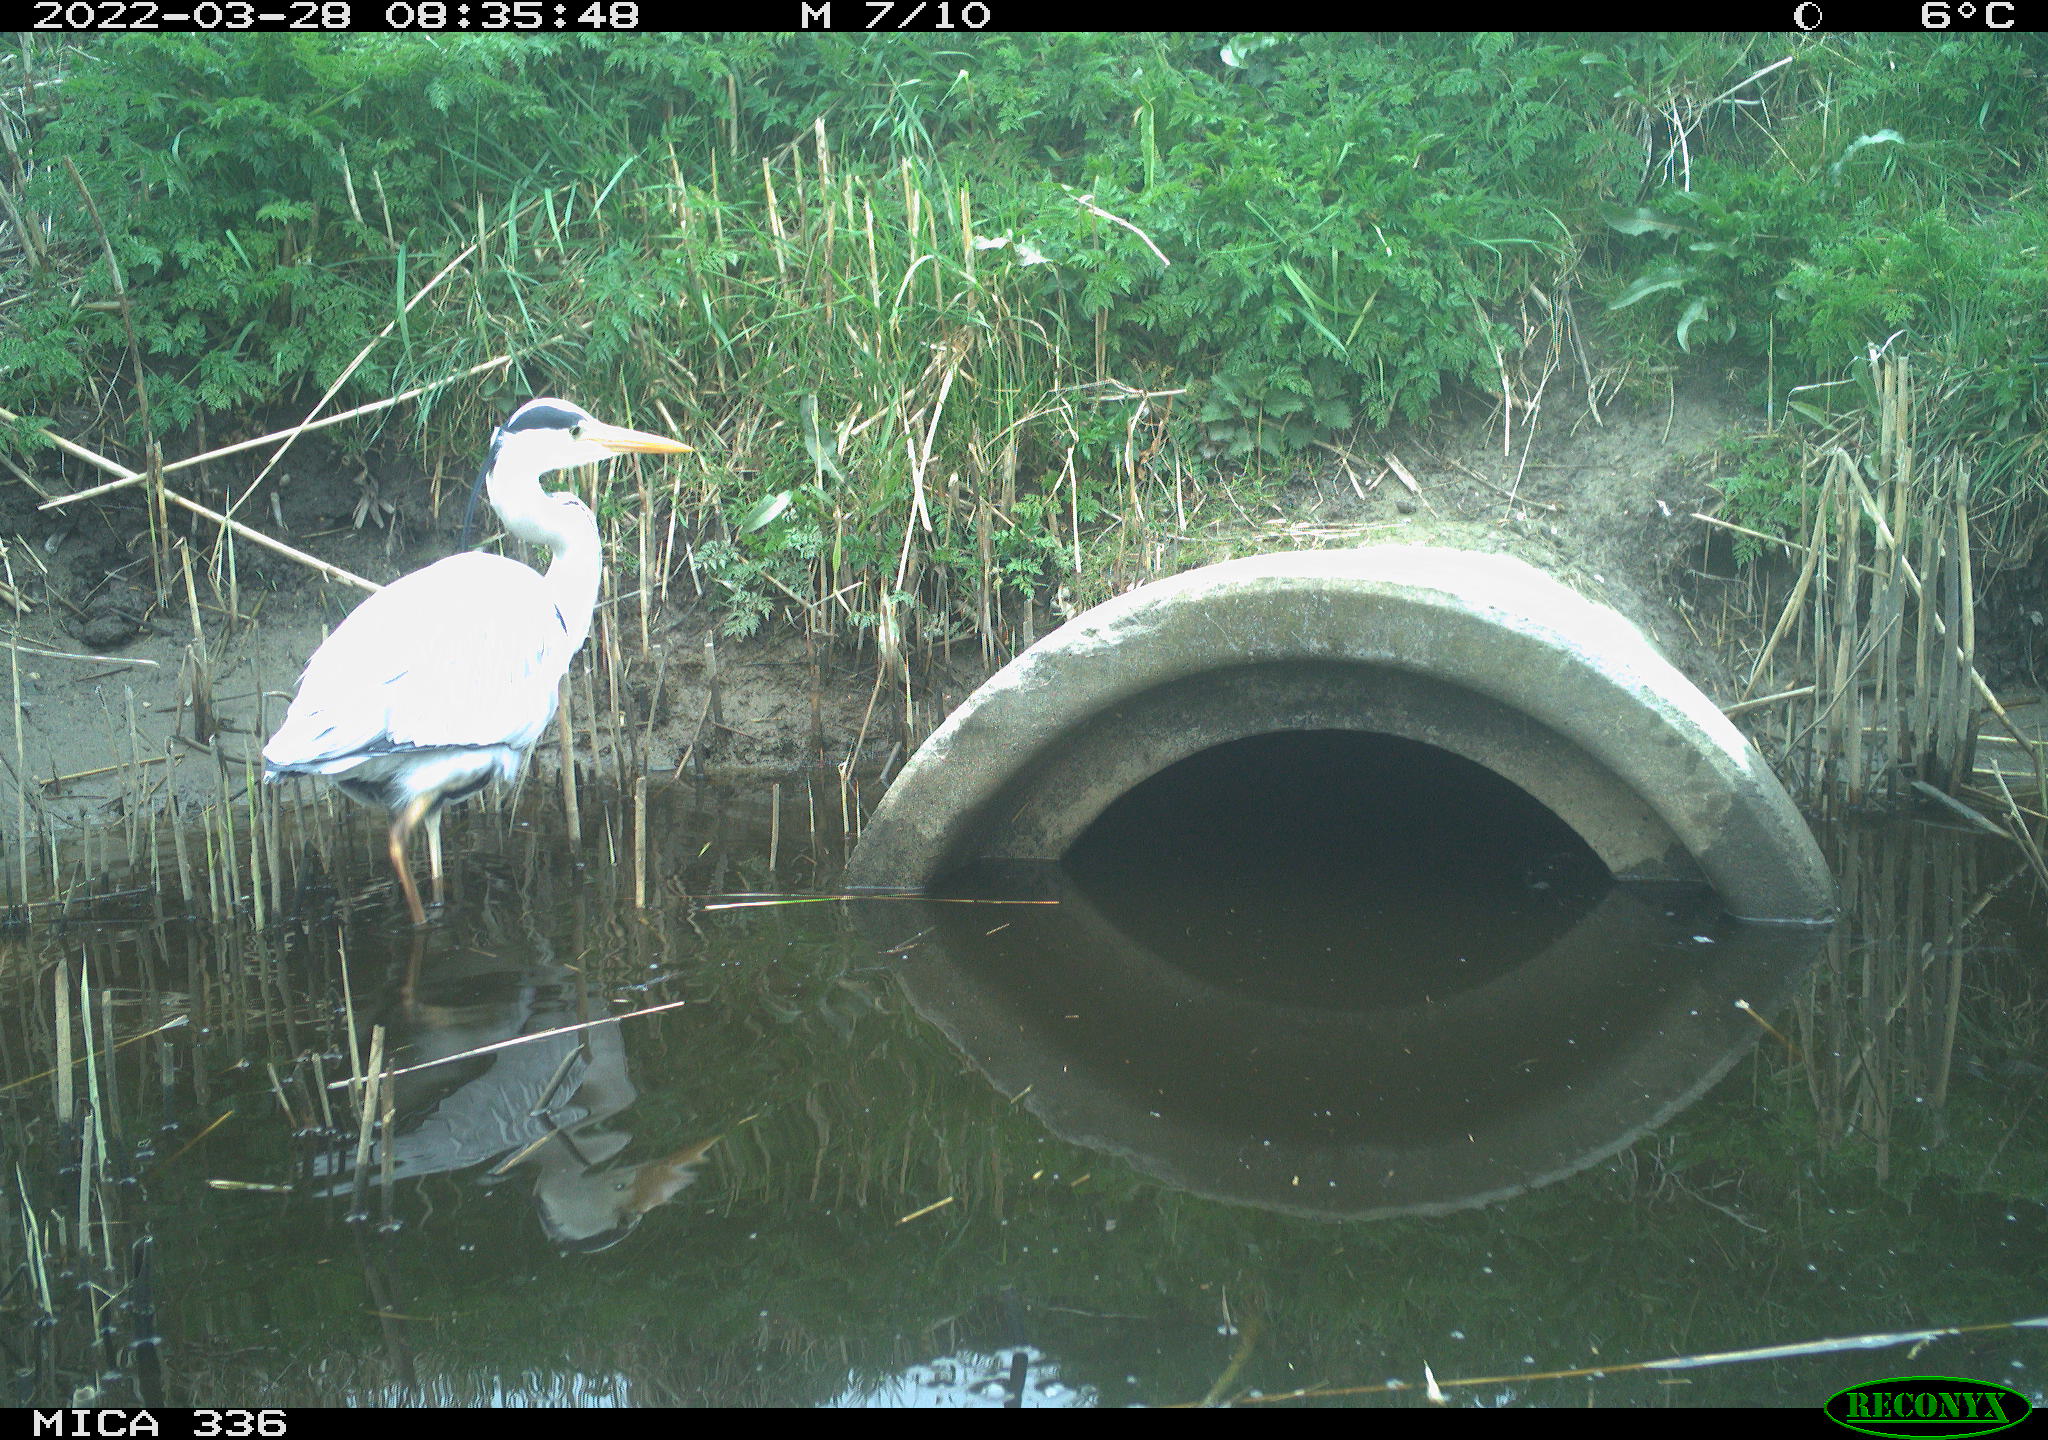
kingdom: Animalia
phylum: Chordata
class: Aves
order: Pelecaniformes
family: Ardeidae
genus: Ardea
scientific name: Ardea cinerea
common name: Grey heron
